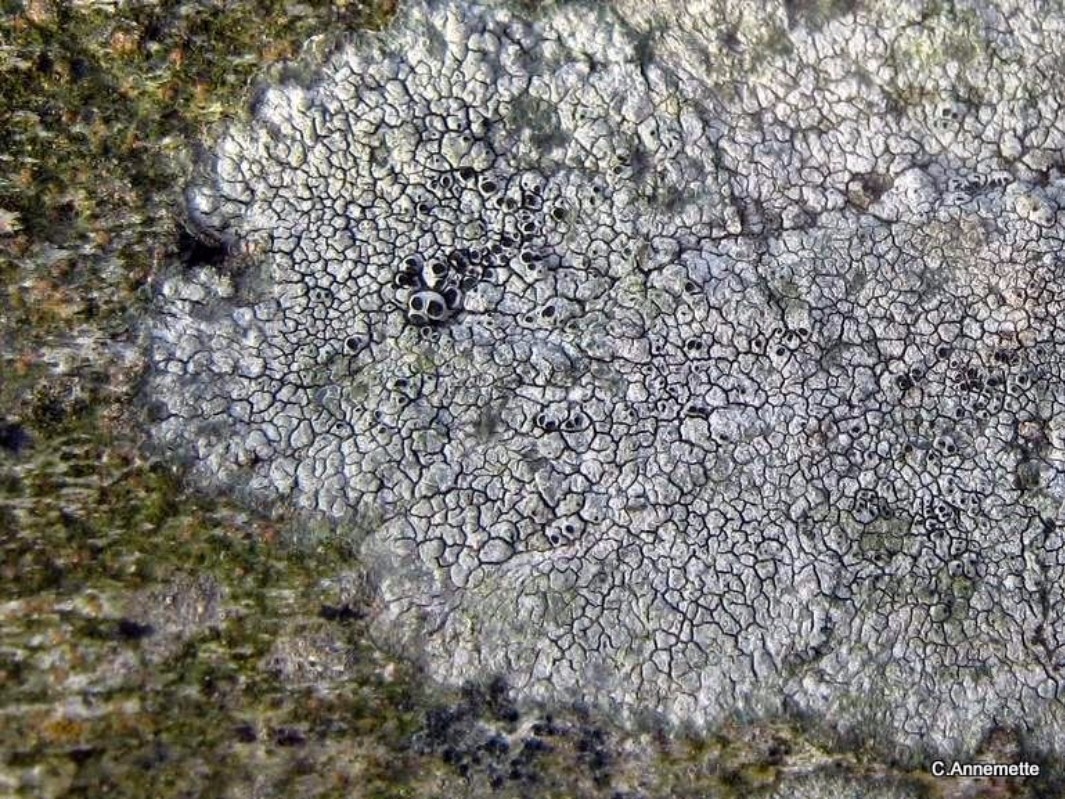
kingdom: Fungi
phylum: Ascomycota
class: Lecanoromycetes
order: Pertusariales
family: Megasporaceae
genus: Aspicilia
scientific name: Aspicilia
